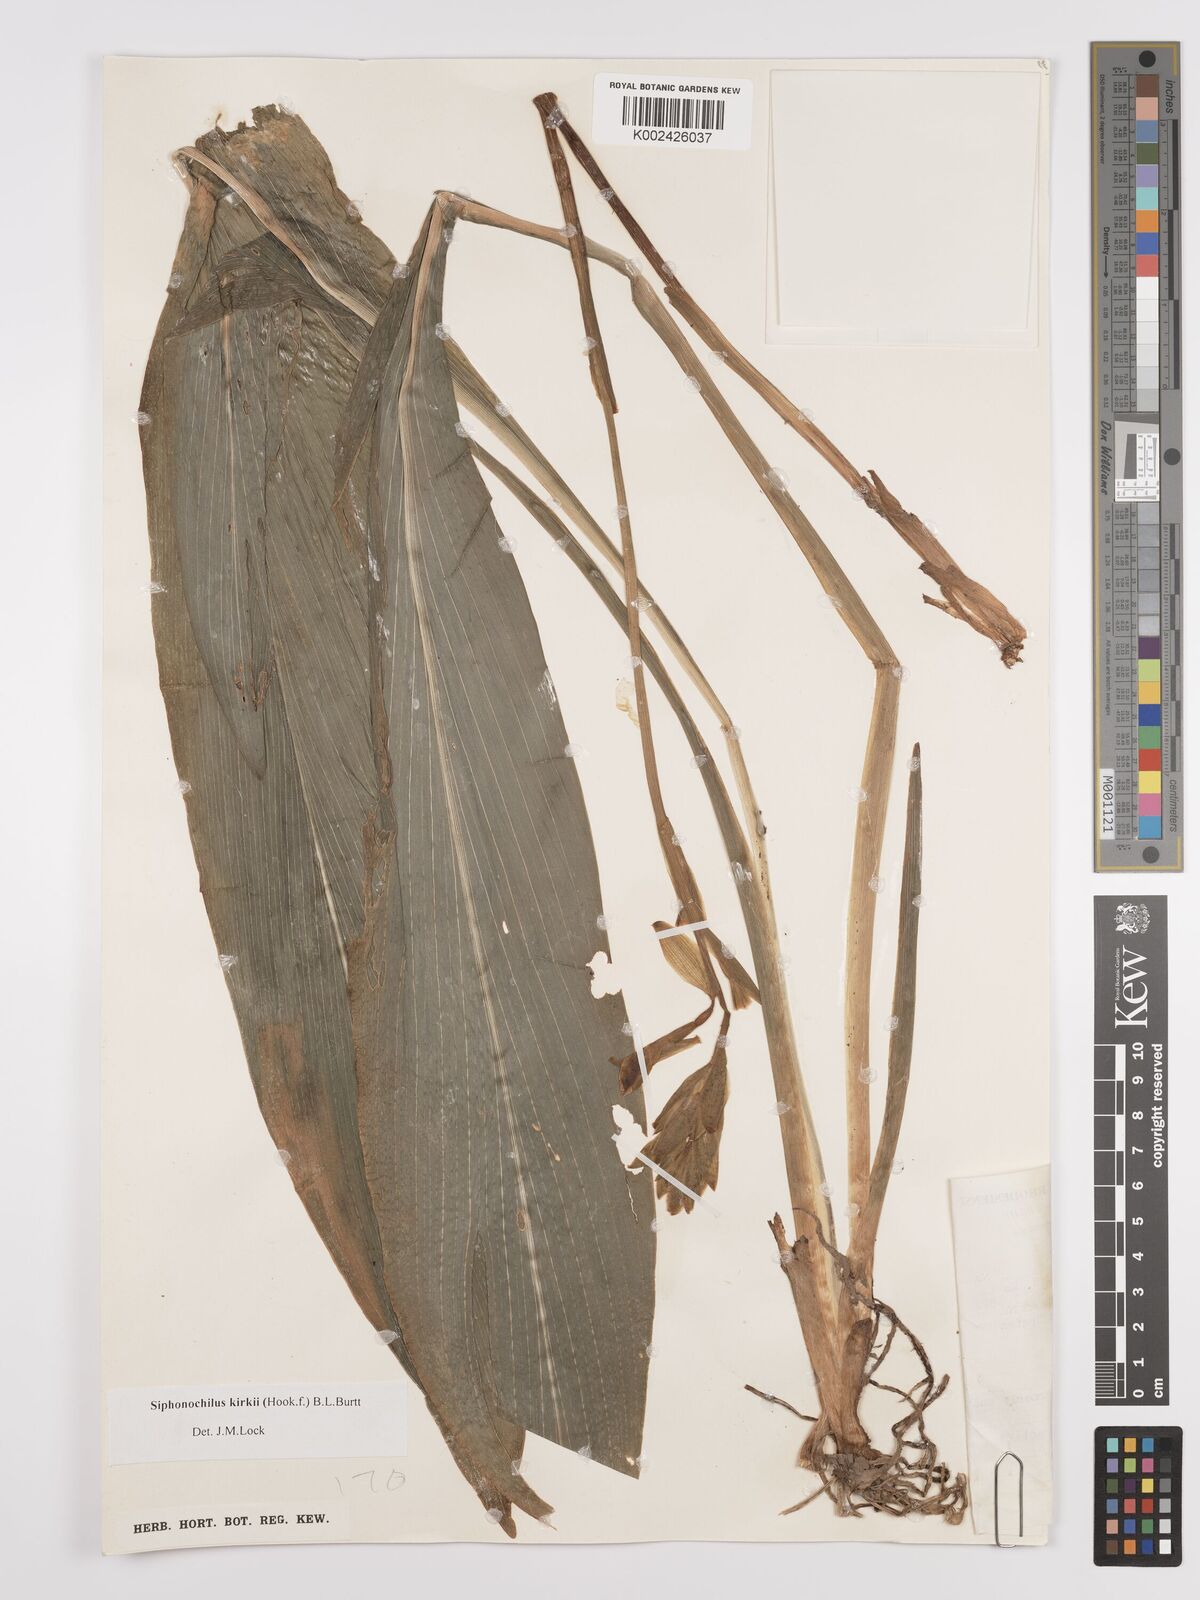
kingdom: Plantae
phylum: Tracheophyta
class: Liliopsida
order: Zingiberales
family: Zingiberaceae
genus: Siphonochilus
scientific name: Siphonochilus kirkii
